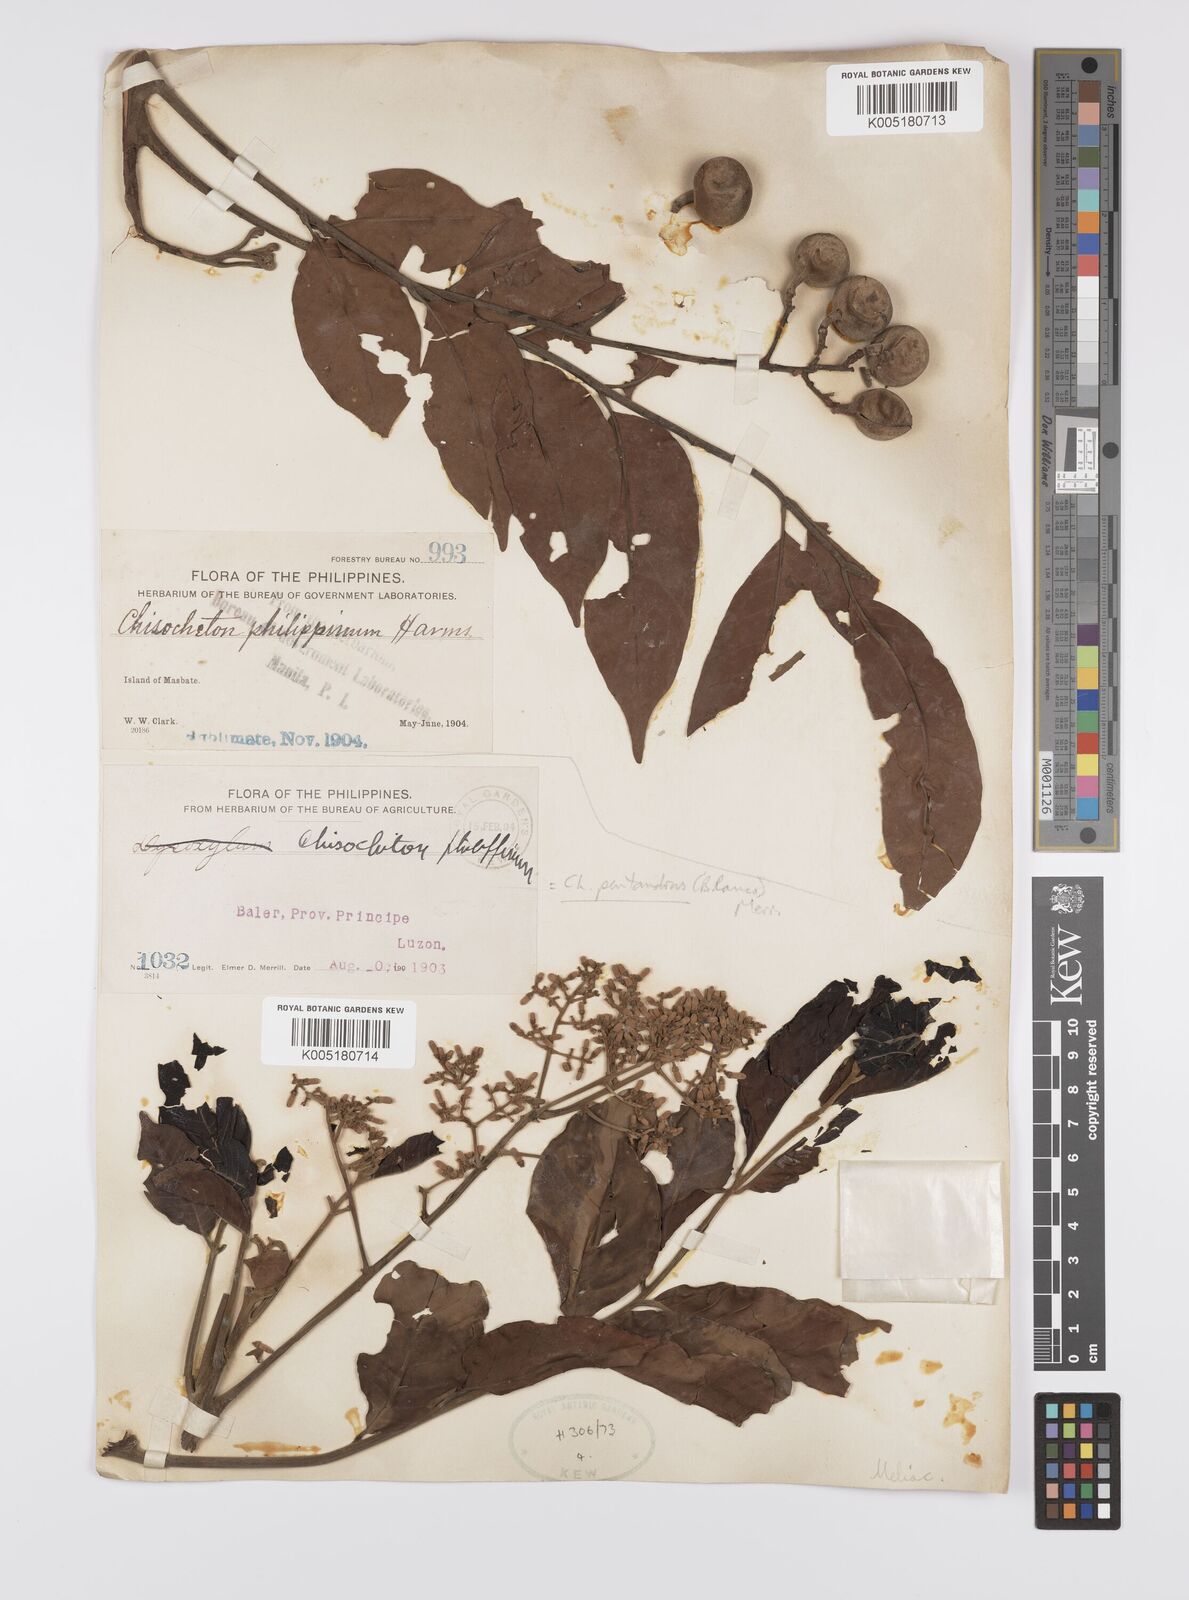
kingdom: Plantae
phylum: Tracheophyta
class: Magnoliopsida
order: Sapindales
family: Meliaceae
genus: Chisocheton
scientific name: Chisocheton
